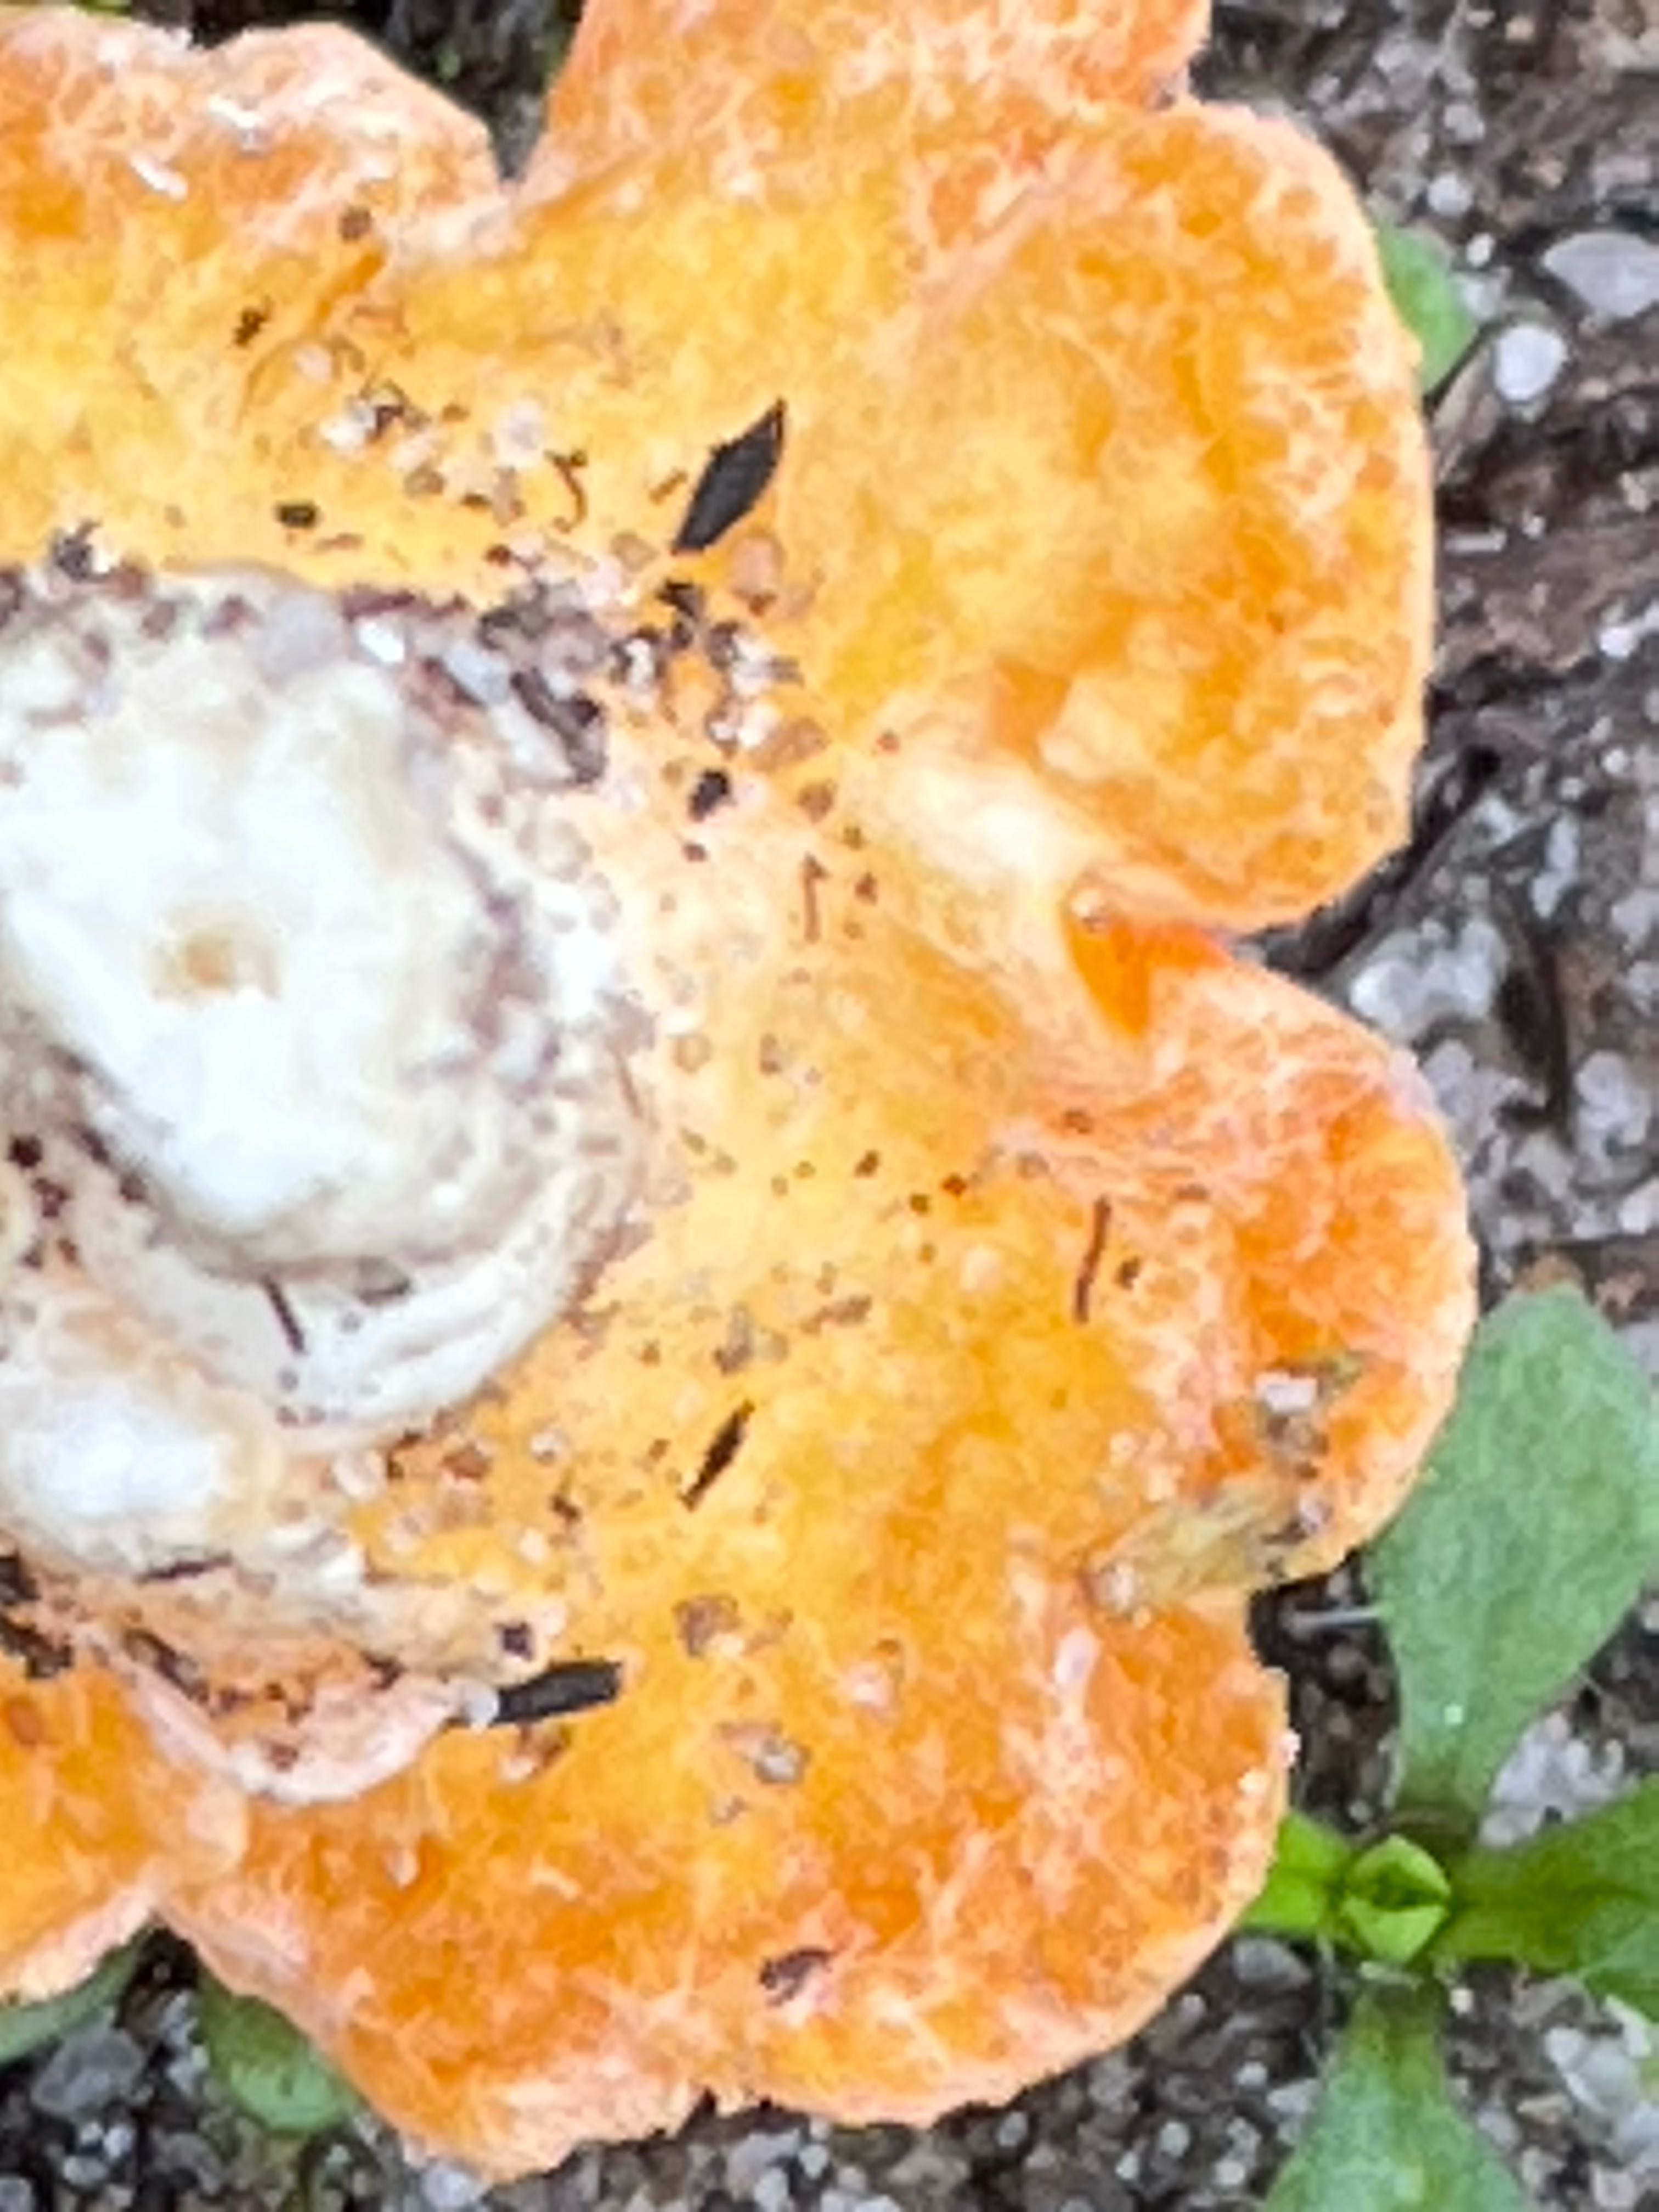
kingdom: Fungi
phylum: Ascomycota
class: Pezizomycetes
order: Pezizales
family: Pyronemataceae
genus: Neottiella
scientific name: Neottiella
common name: mosbæger
